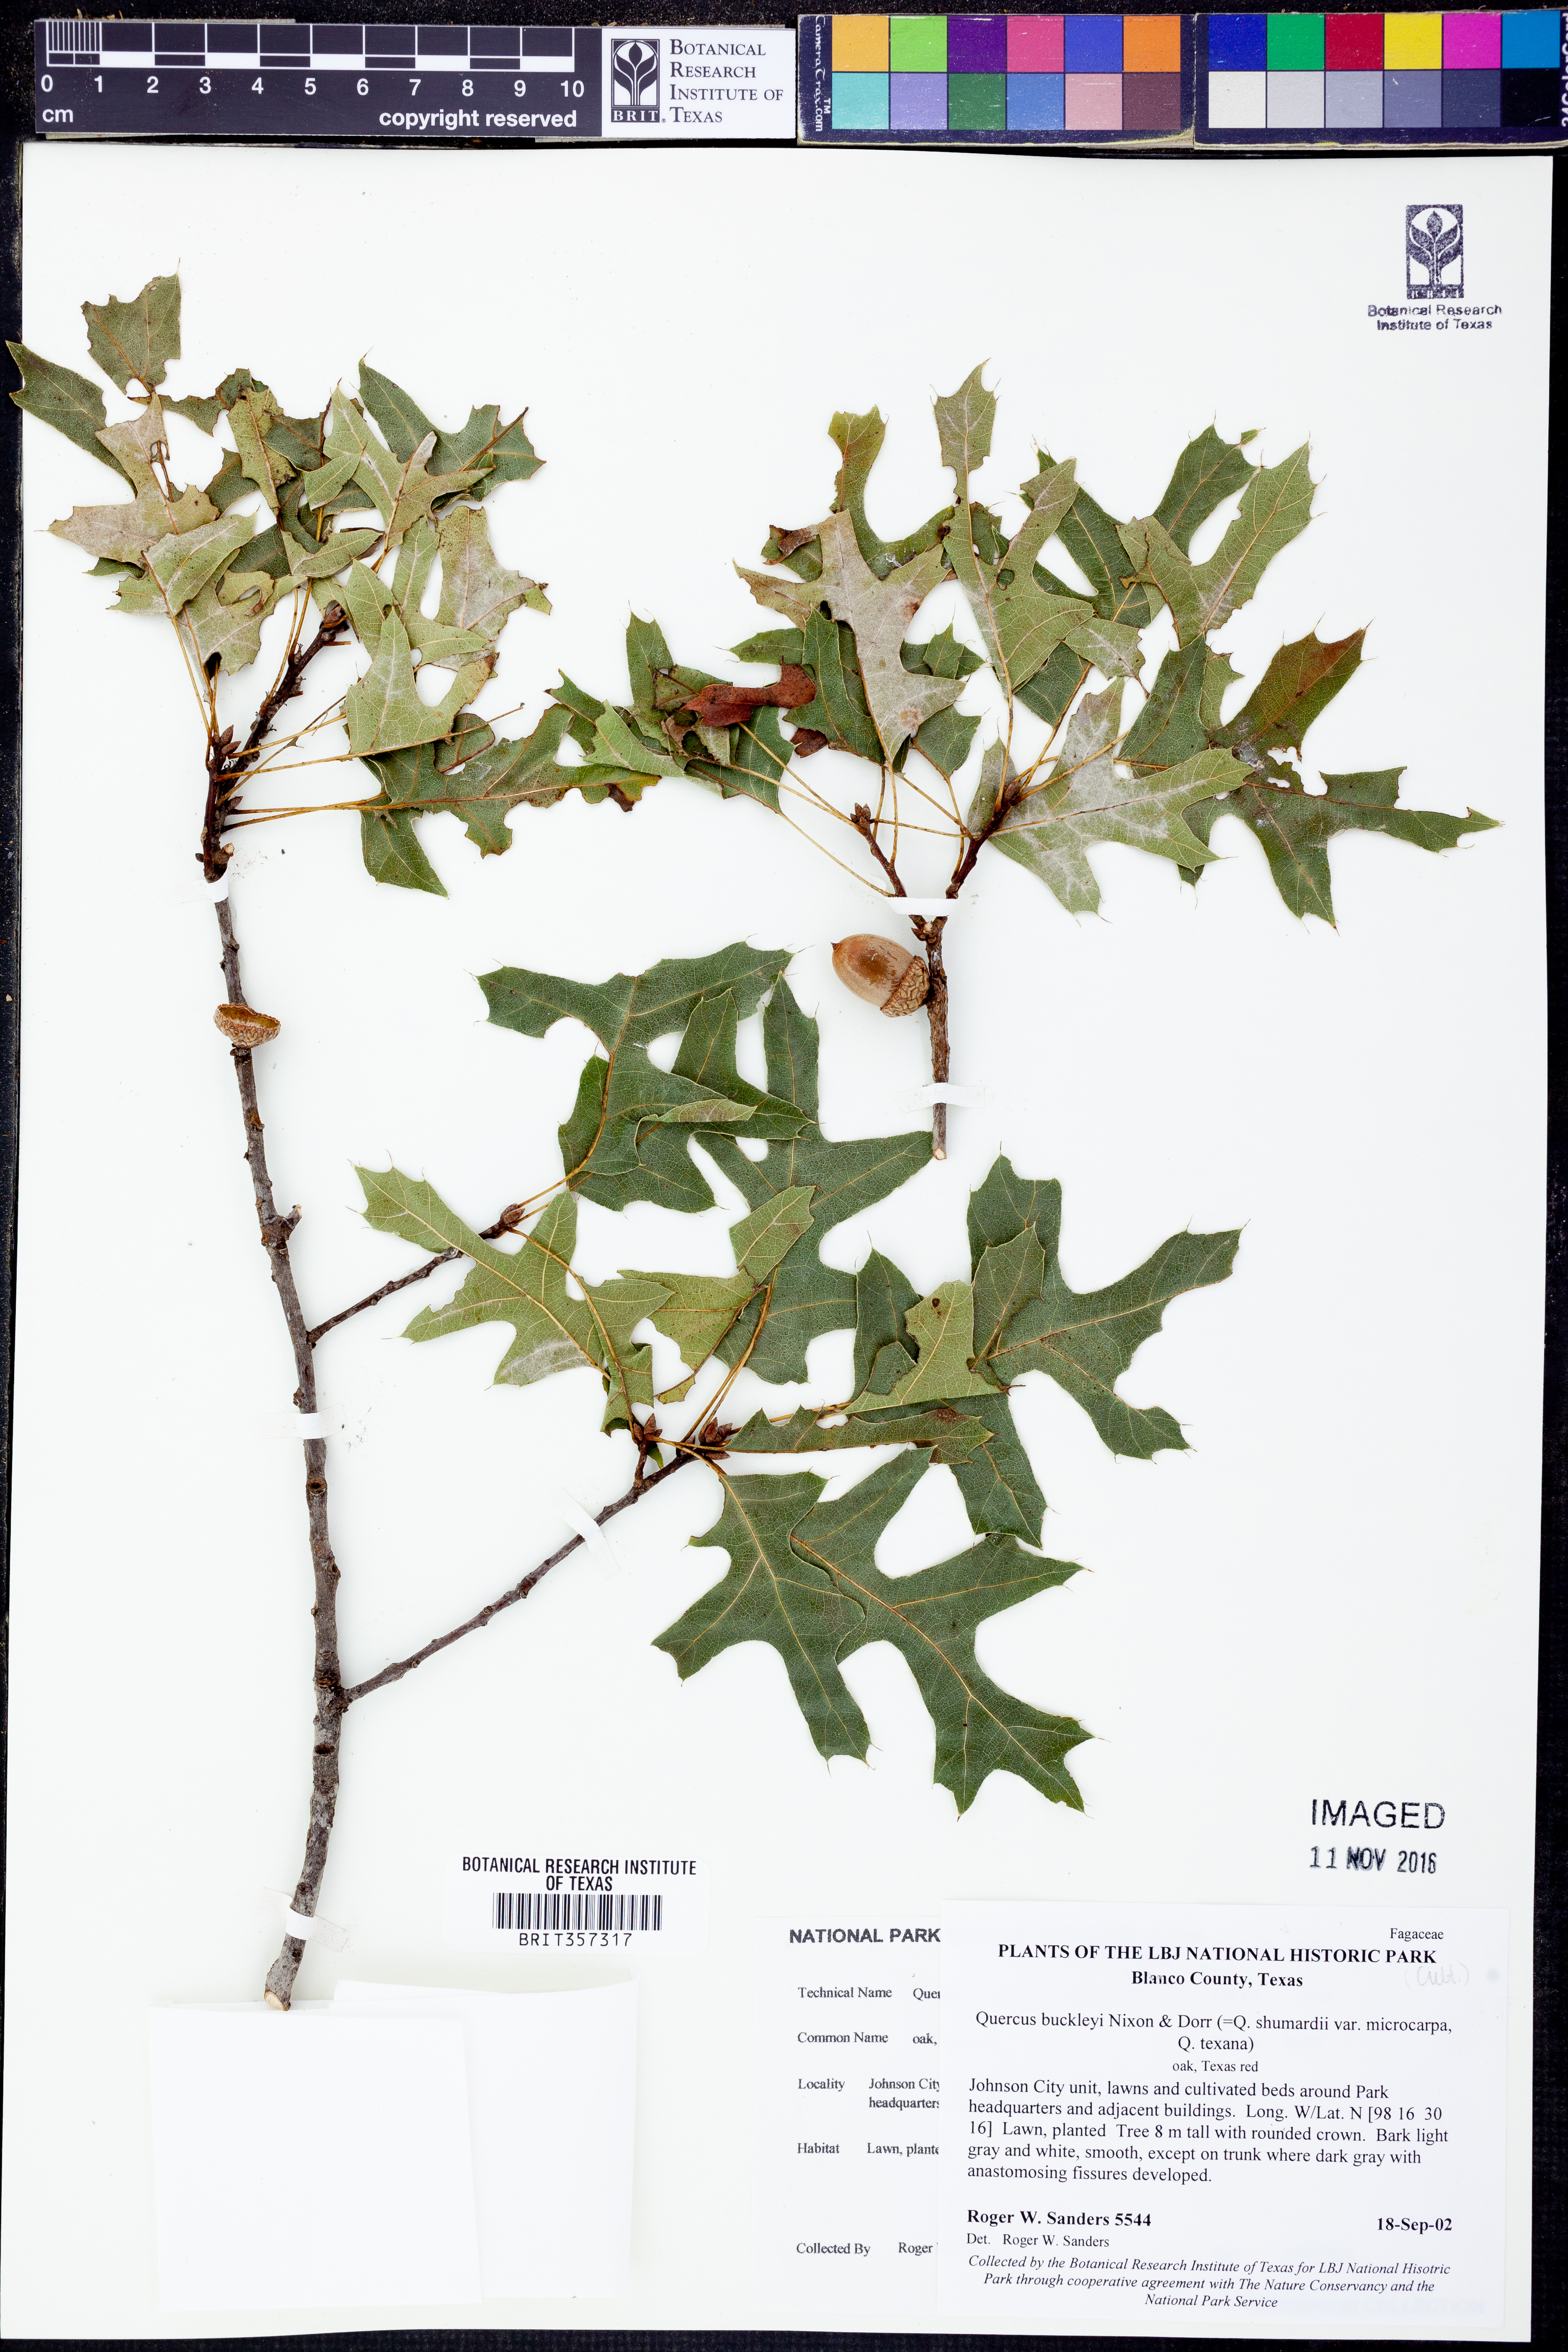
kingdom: Plantae
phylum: Tracheophyta
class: Magnoliopsida
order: Fagales
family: Fagaceae
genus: Quercus
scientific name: Quercus buckleyi
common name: Buckley oak
